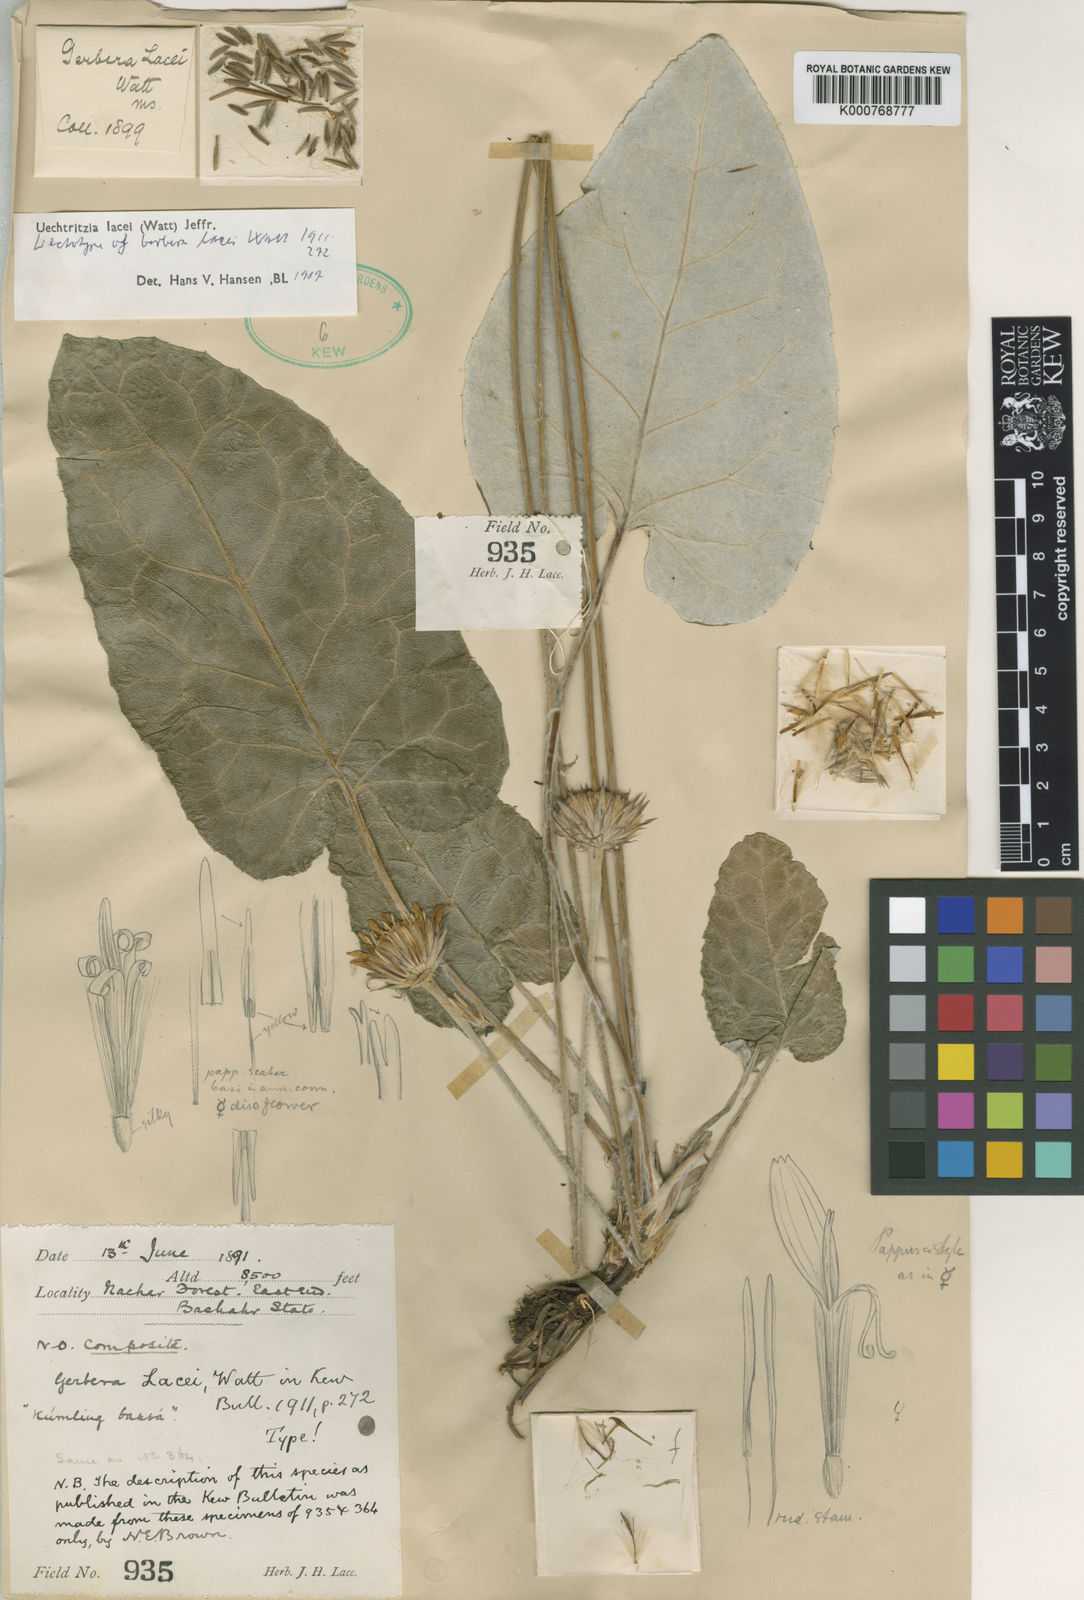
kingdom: Plantae
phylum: Tracheophyta
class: Magnoliopsida
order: Asterales
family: Asteraceae
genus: Oreoseris
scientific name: Oreoseris lacei
